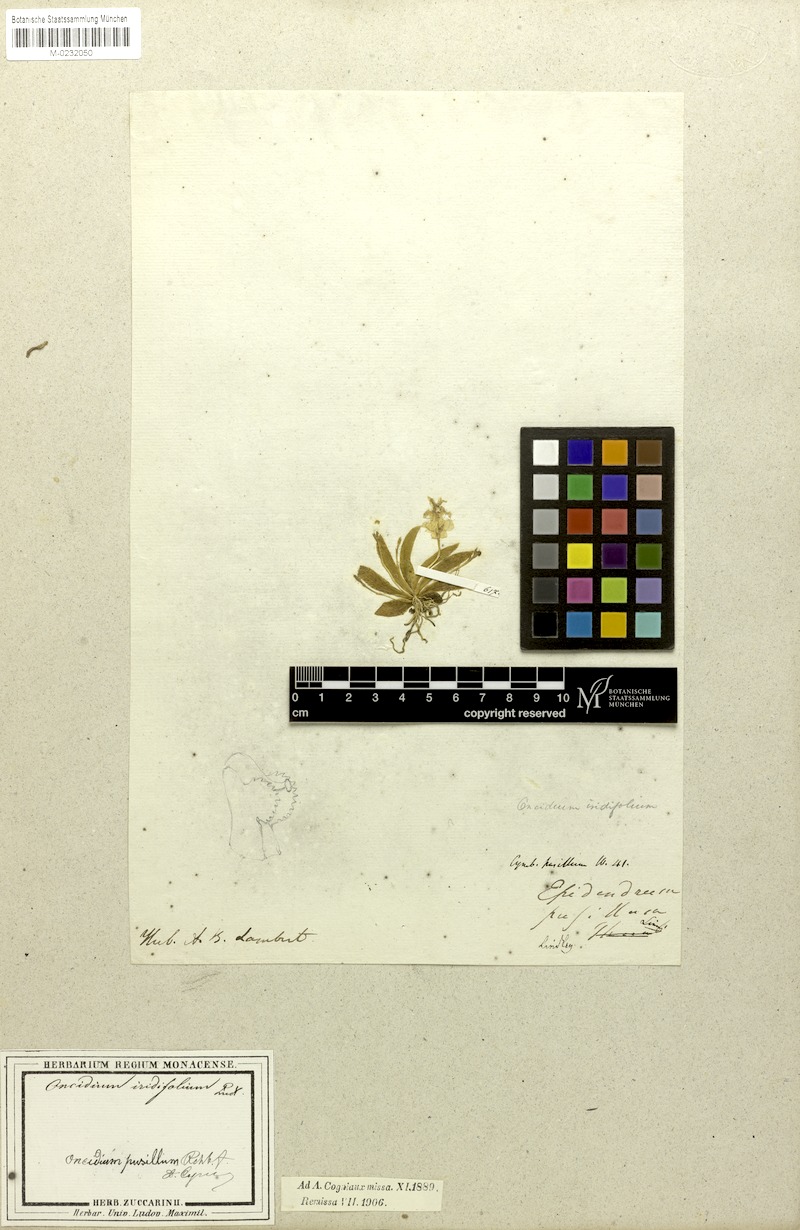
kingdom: Plantae
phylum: Tracheophyta
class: Liliopsida
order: Asparagales
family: Orchidaceae
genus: Erycina
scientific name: Erycina pusilla
